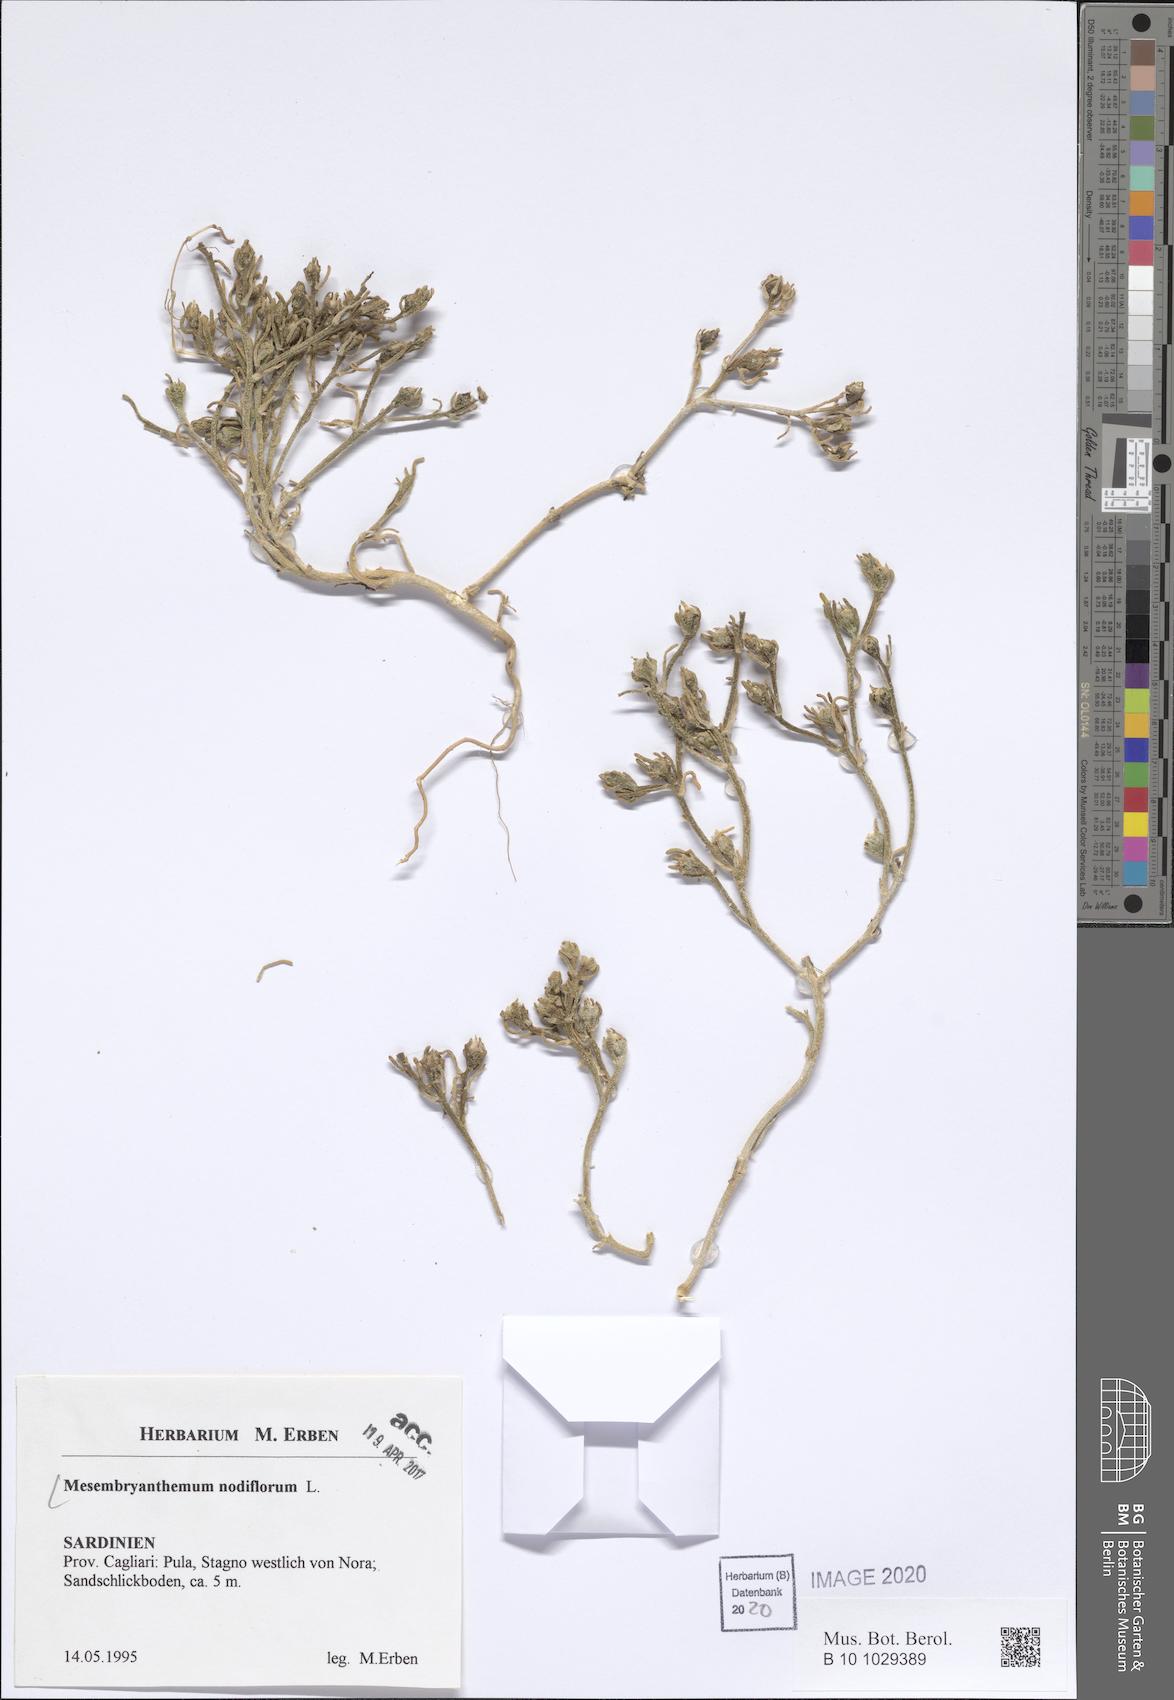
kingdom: Plantae
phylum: Tracheophyta
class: Magnoliopsida
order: Caryophyllales
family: Aizoaceae
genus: Mesembryanthemum
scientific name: Mesembryanthemum nodiflorum
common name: Slenderleaf iceplant
